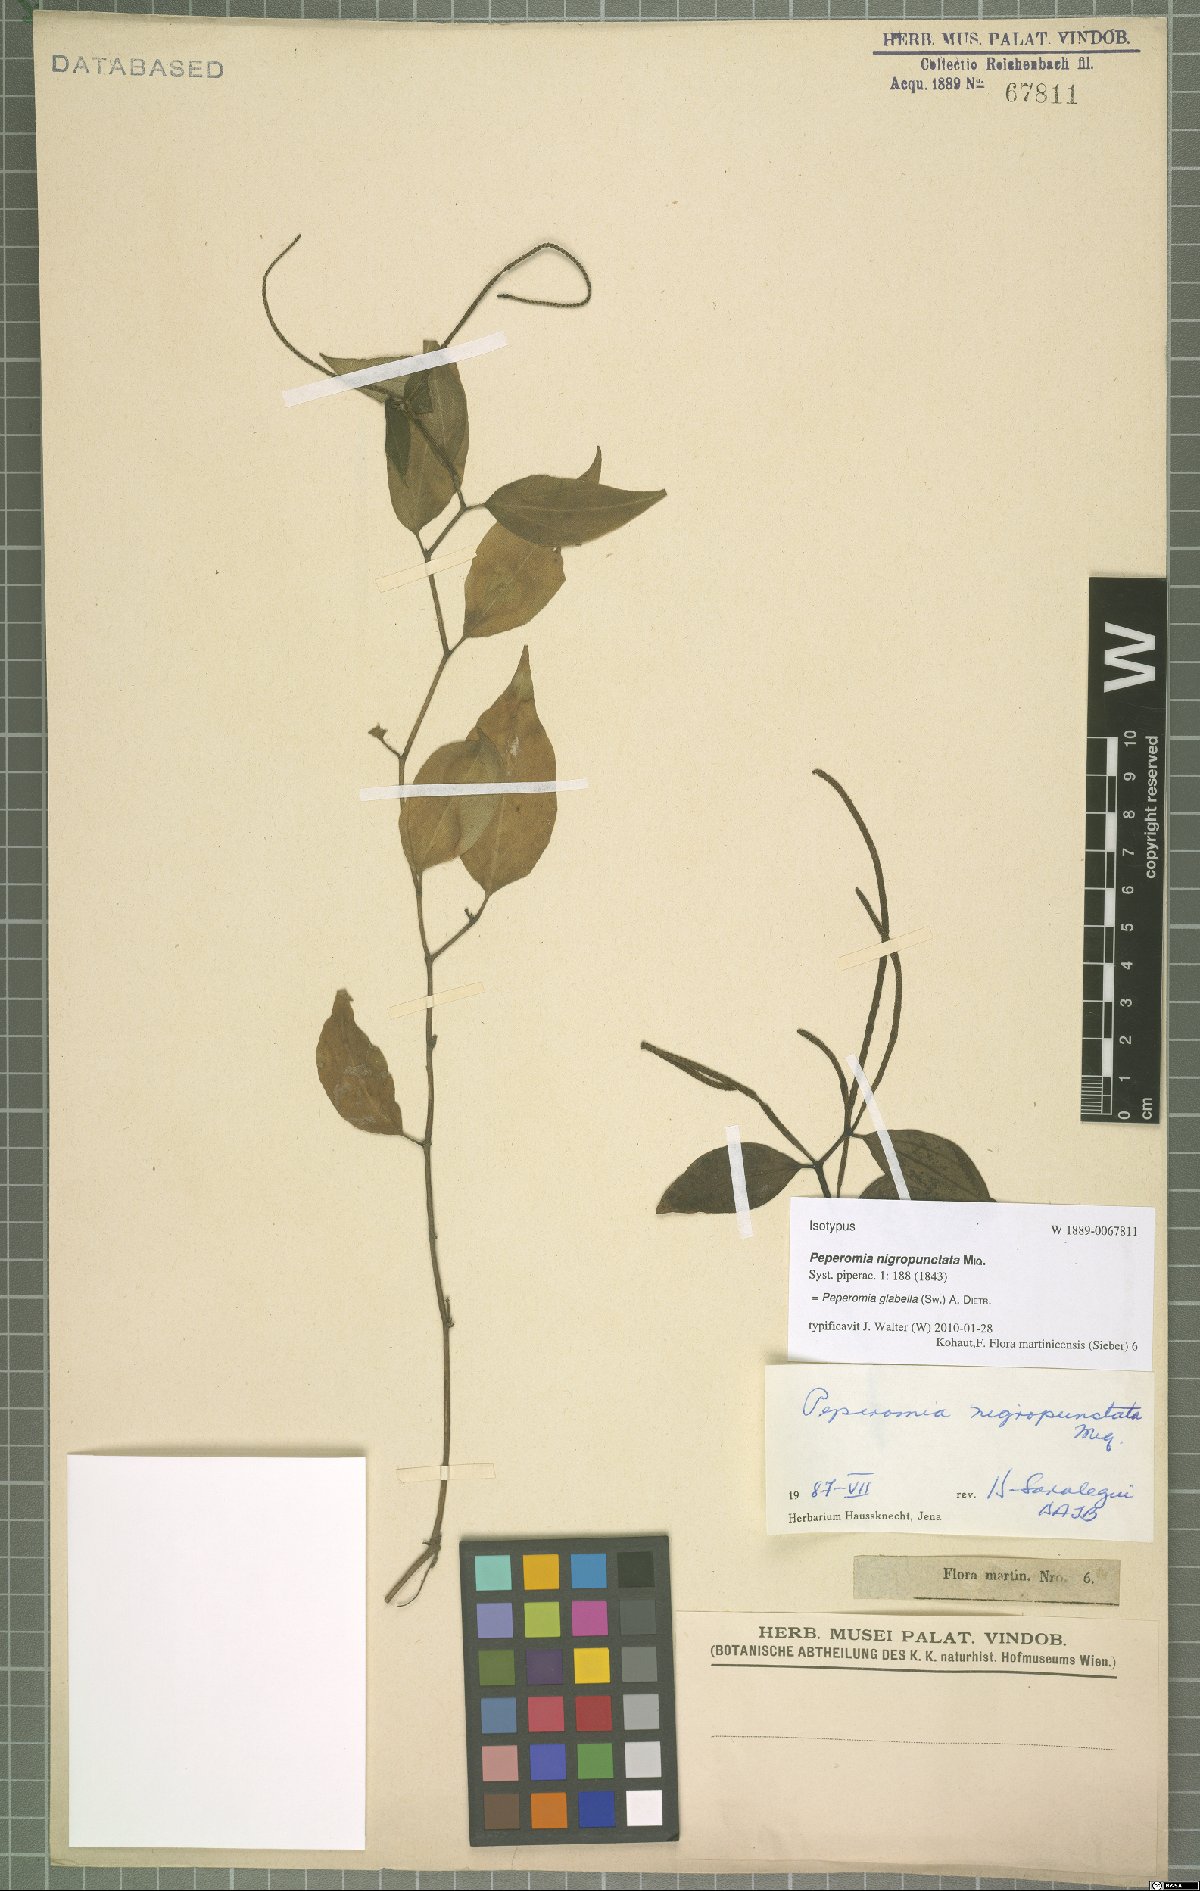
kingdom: Plantae
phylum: Tracheophyta
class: Magnoliopsida
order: Piperales
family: Piperaceae
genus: Peperomia
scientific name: Peperomia glabella
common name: Cypress peperomia
